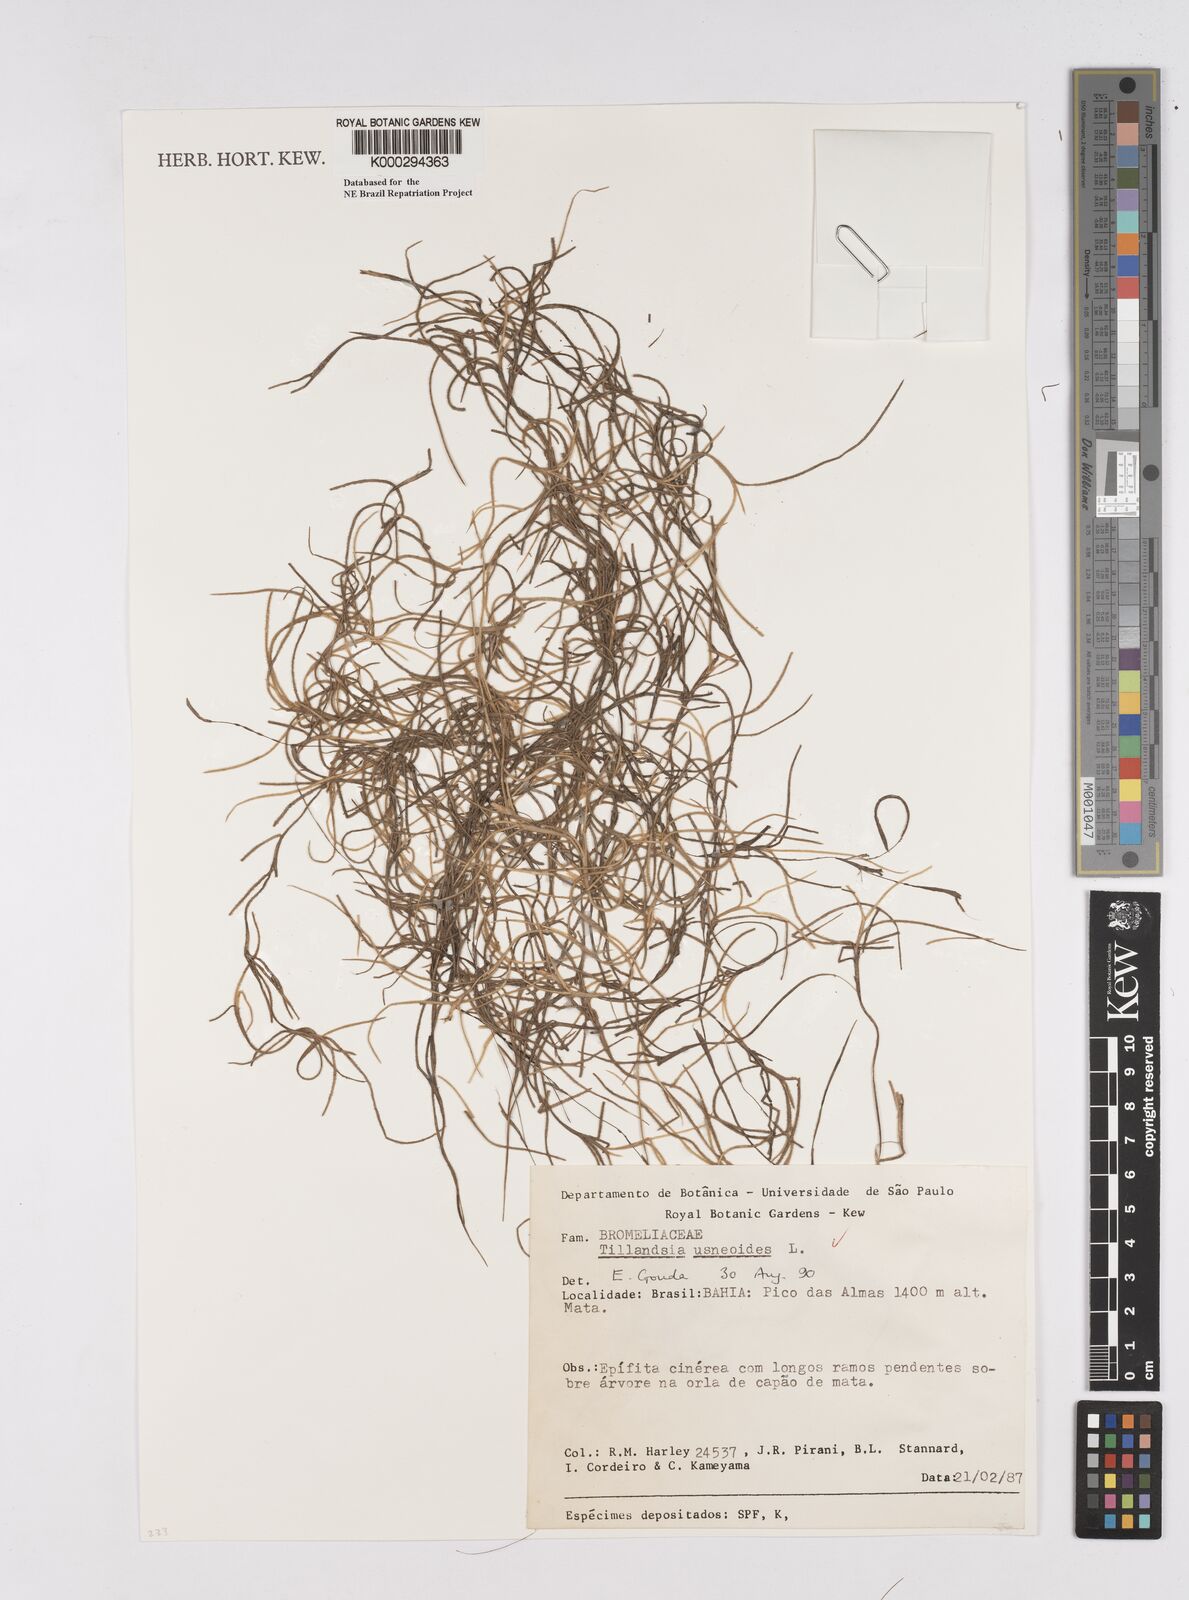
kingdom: Plantae
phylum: Tracheophyta
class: Liliopsida
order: Poales
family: Bromeliaceae
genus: Tillandsia
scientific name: Tillandsia usneoides
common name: Spanish moss
